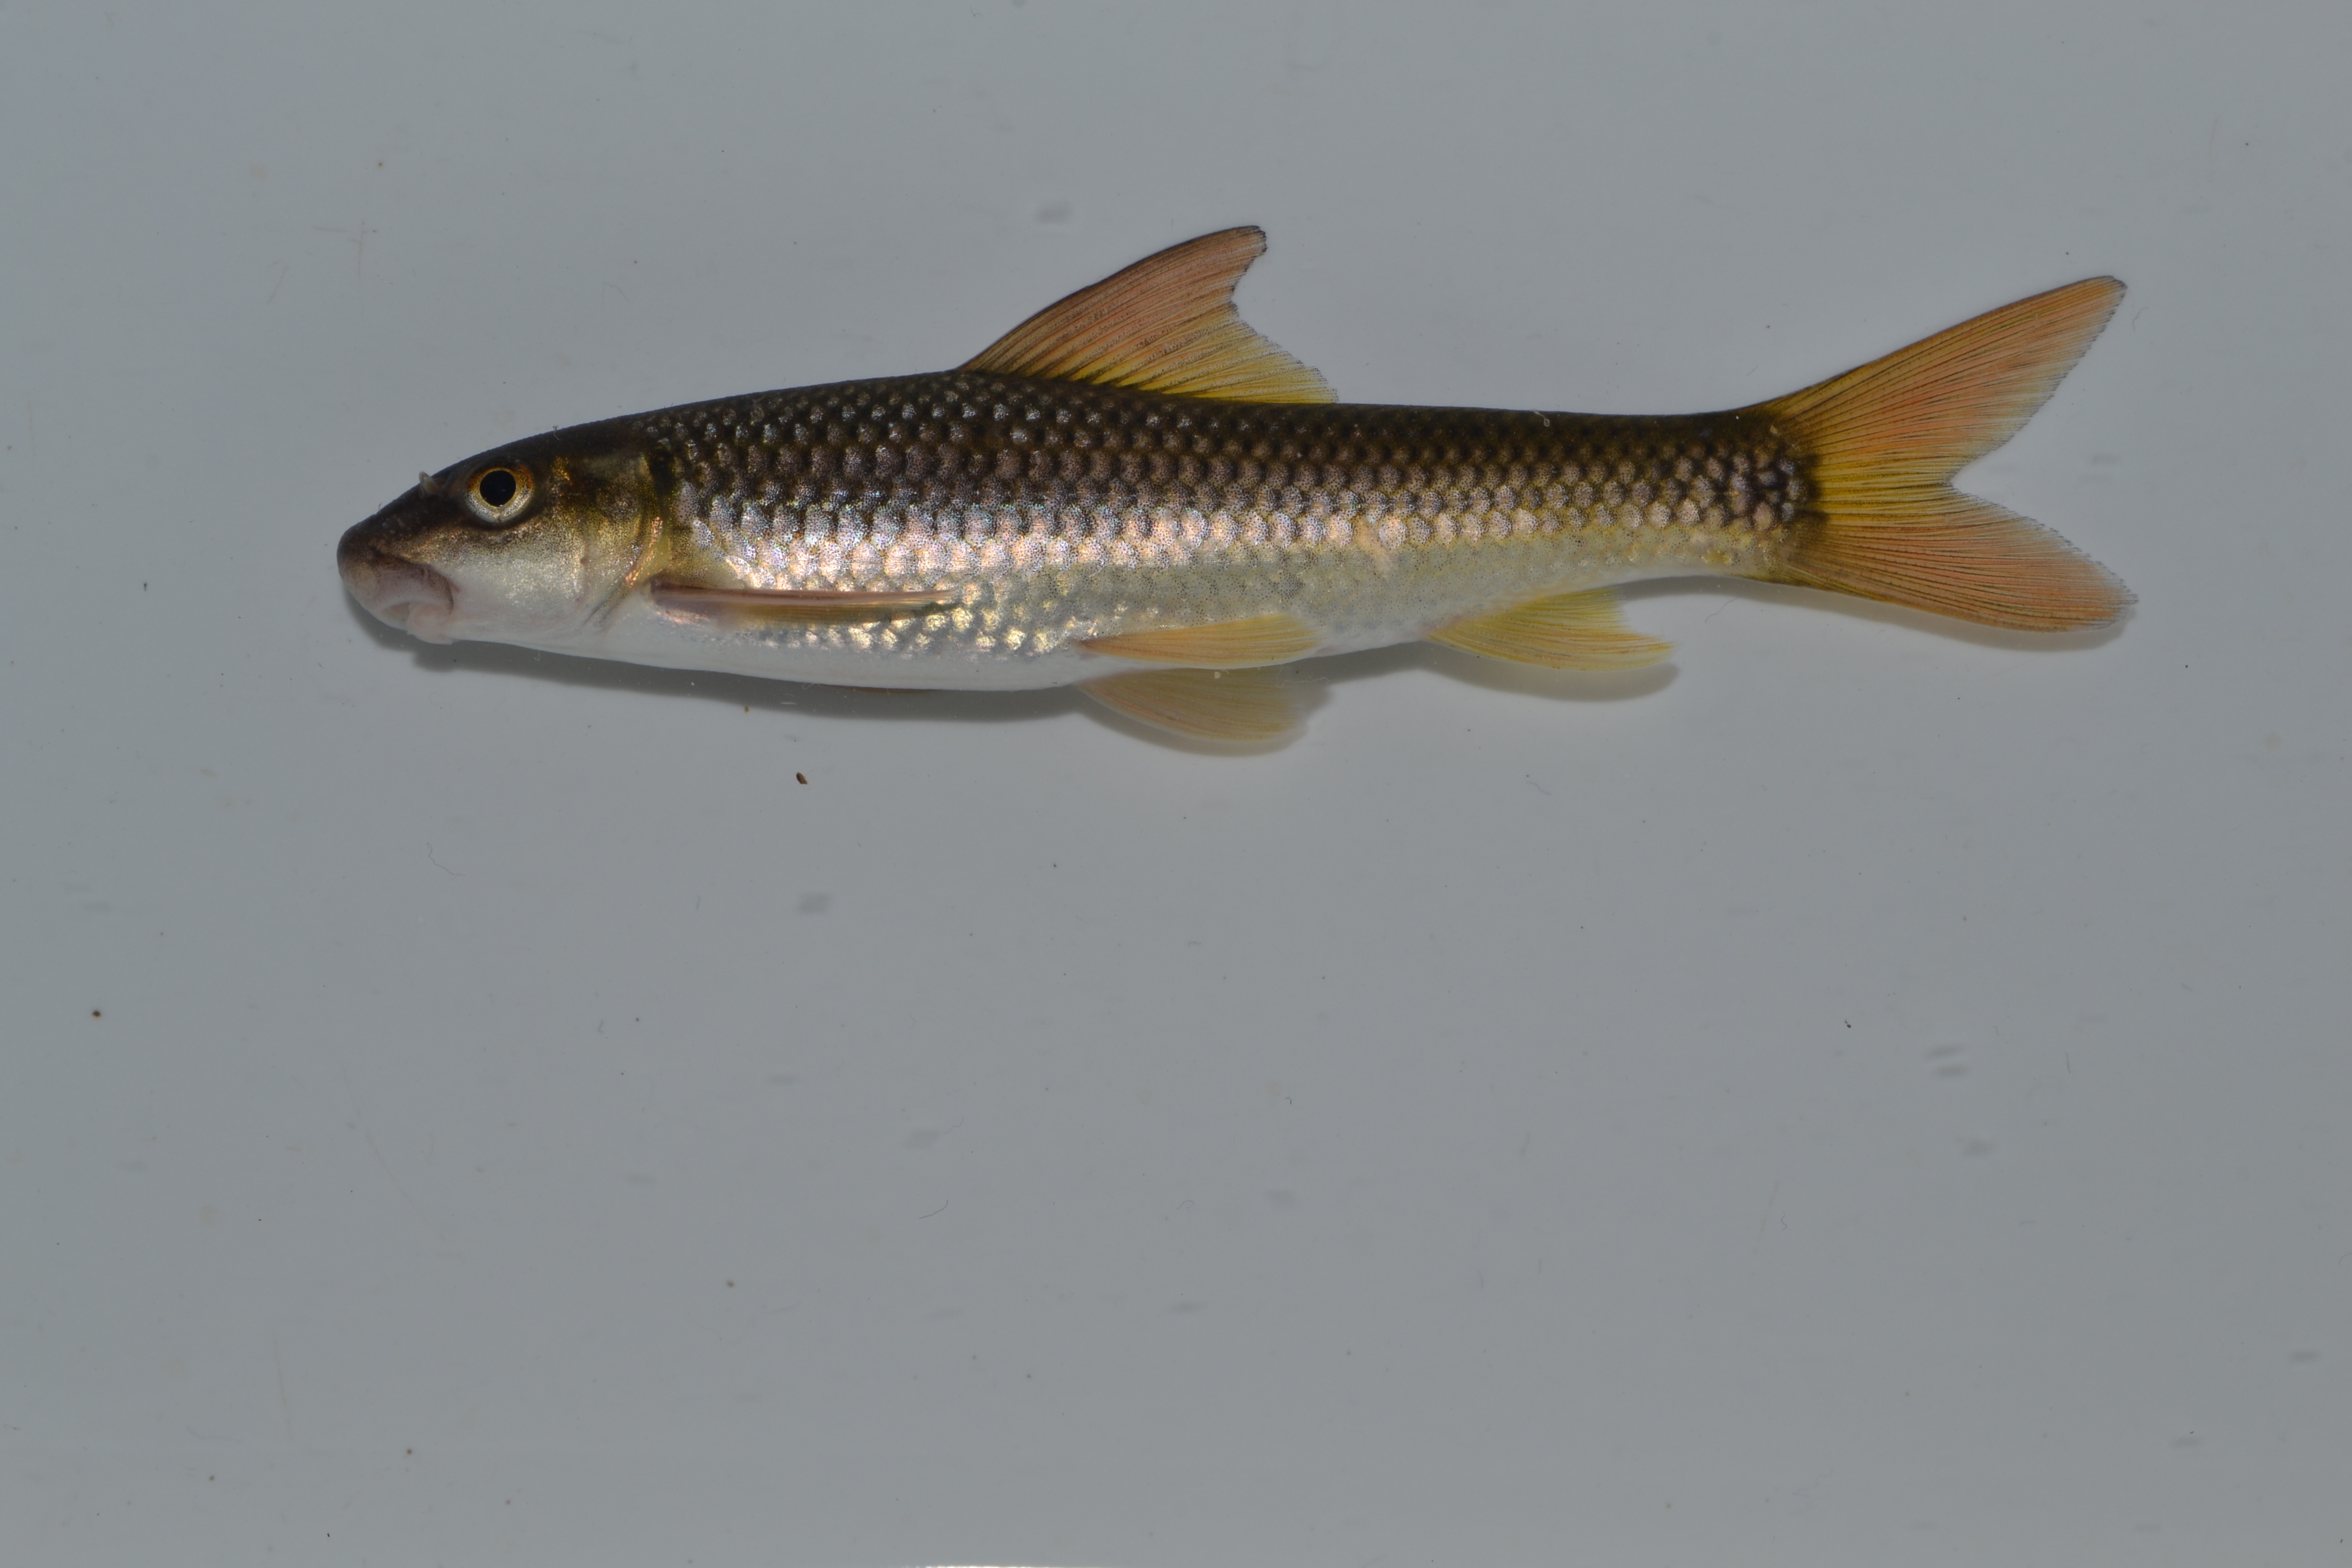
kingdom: Animalia
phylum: Chordata
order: Cypriniformes
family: Cyprinidae
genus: Labeo
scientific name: Labeo molybdinus
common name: Leaden labeo
